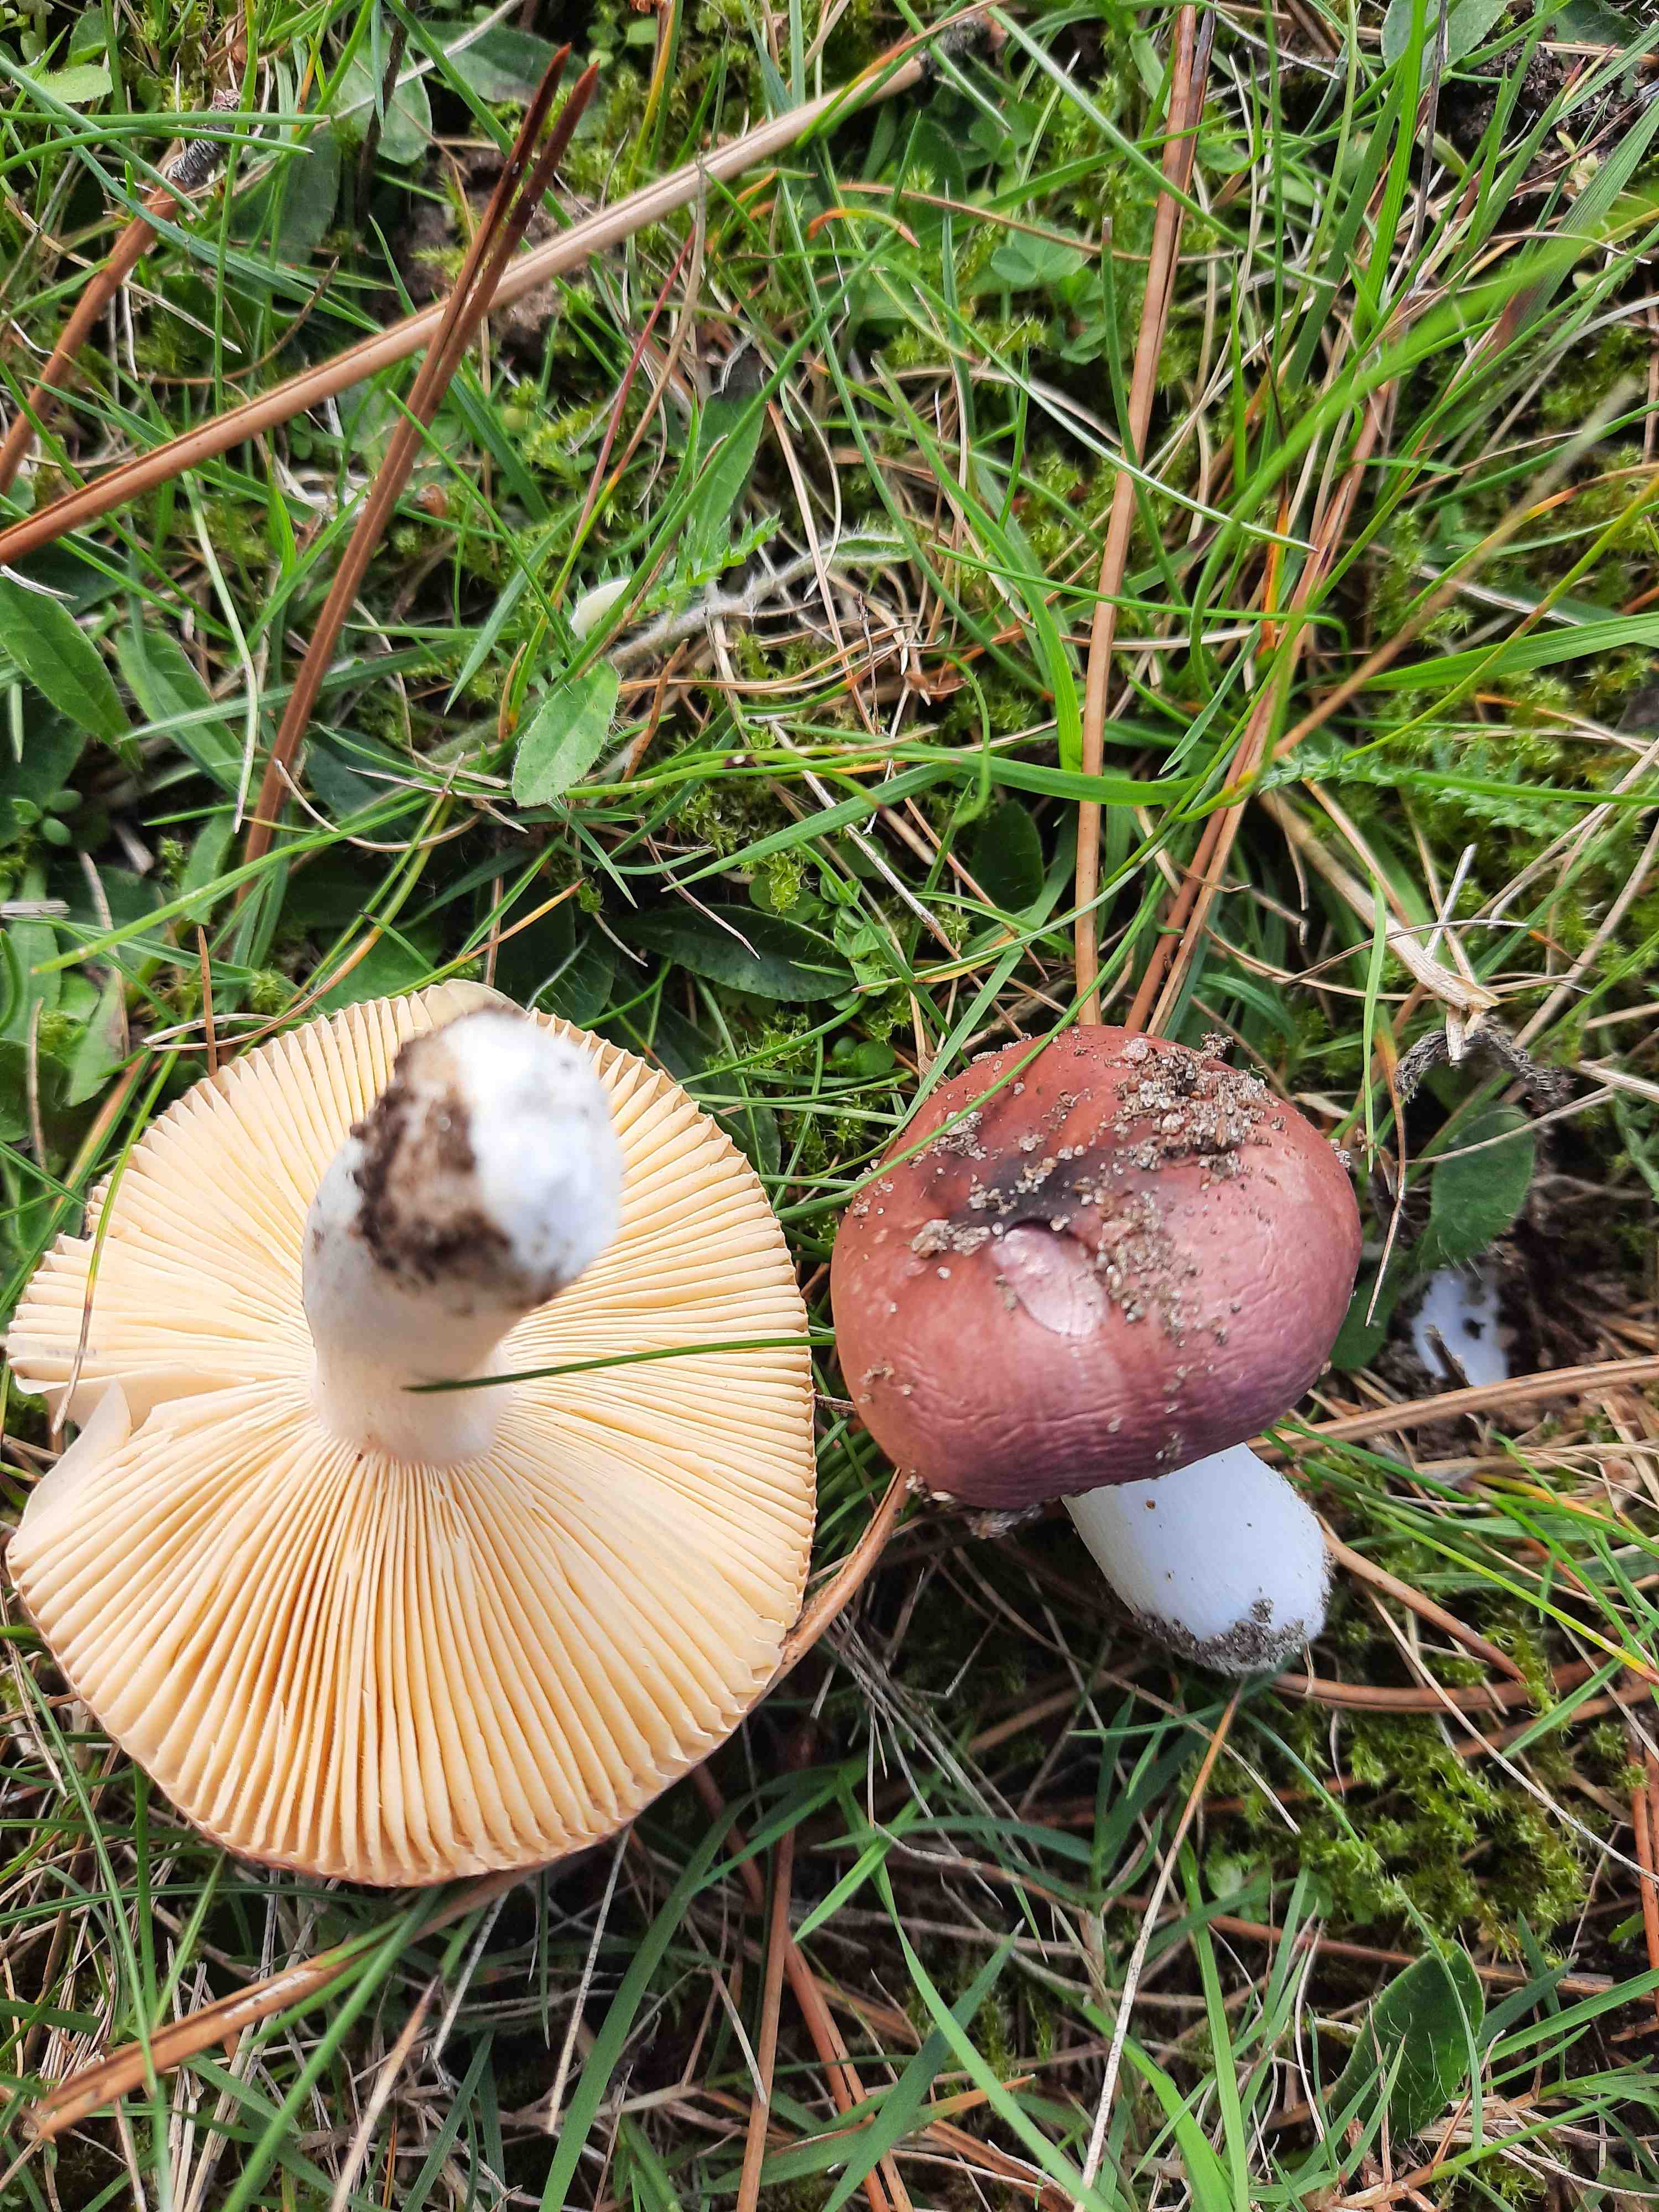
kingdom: Fungi
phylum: Basidiomycota
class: Agaricomycetes
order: Russulales
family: Russulaceae
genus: Russula
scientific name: Russula cessans
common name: fyrre-skørhat
